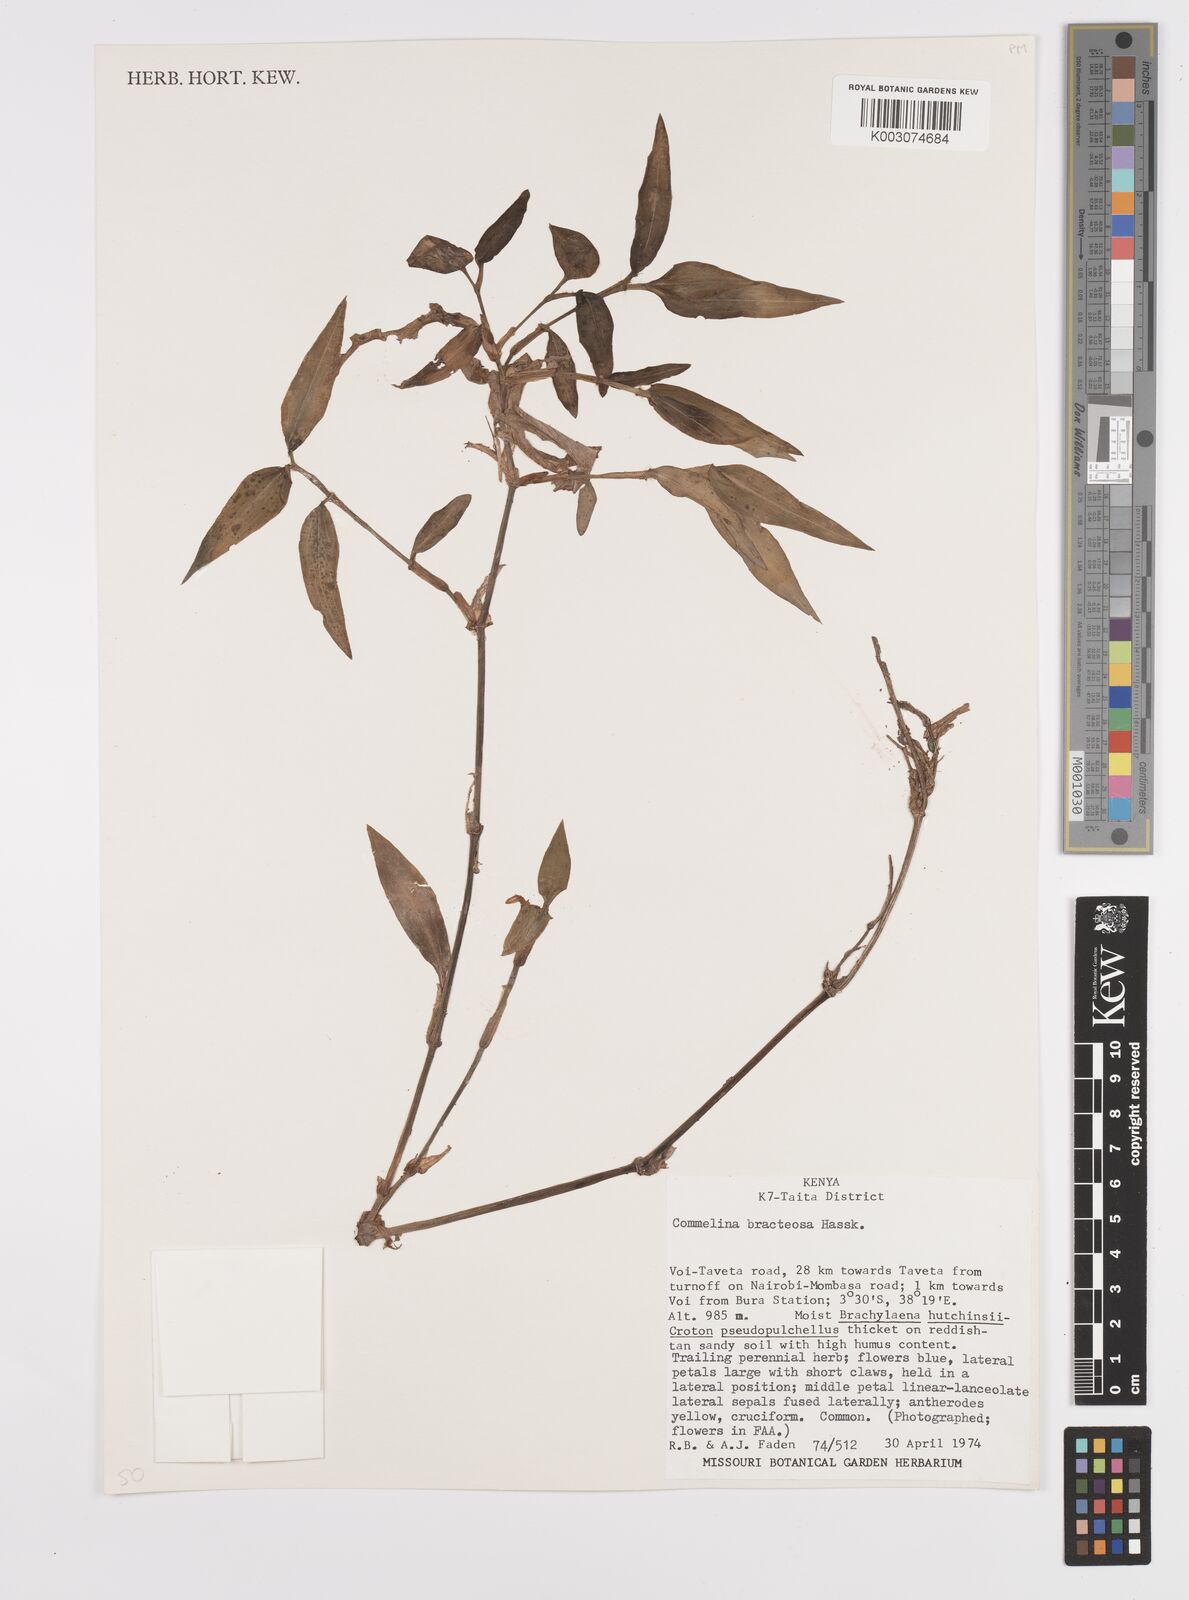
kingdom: Plantae
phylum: Tracheophyta
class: Liliopsida
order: Commelinales
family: Commelinaceae
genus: Commelina
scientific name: Commelina bracteosa
